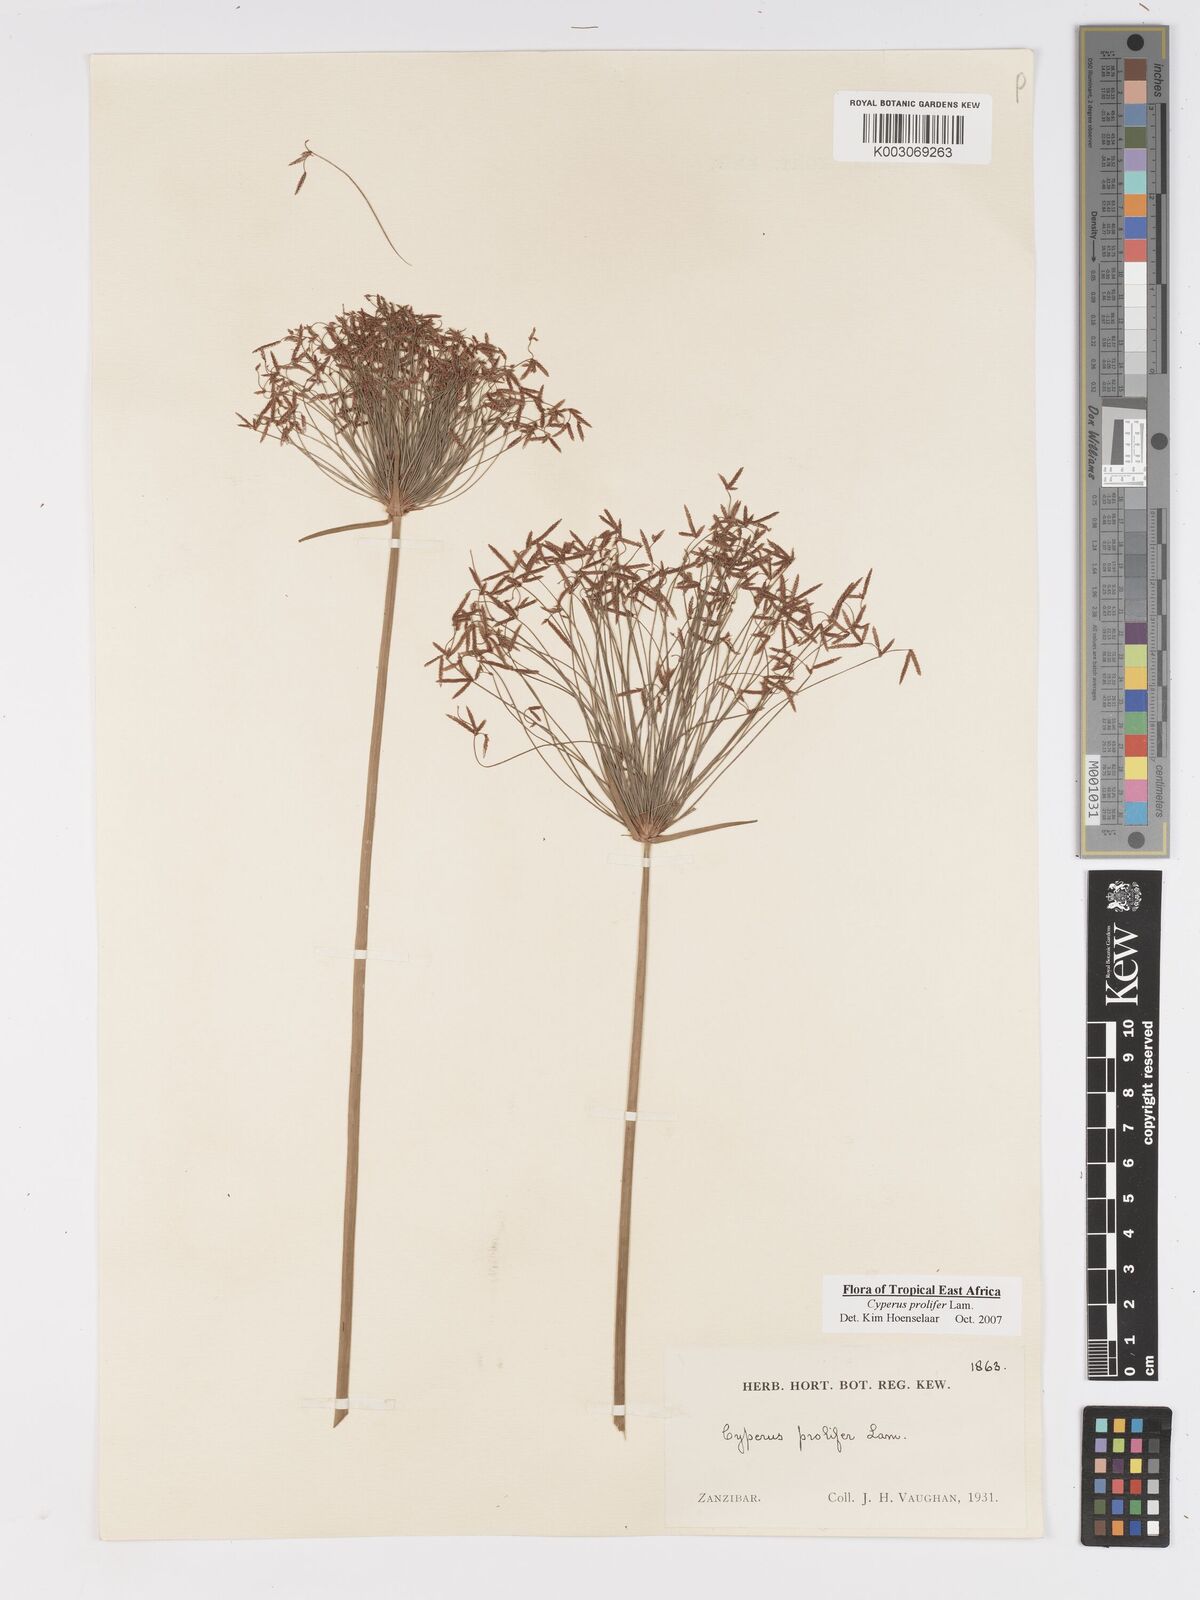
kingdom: Plantae
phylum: Tracheophyta
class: Liliopsida
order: Poales
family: Cyperaceae
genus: Cyperus
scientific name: Cyperus prolifer
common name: Miniature flatsedge
